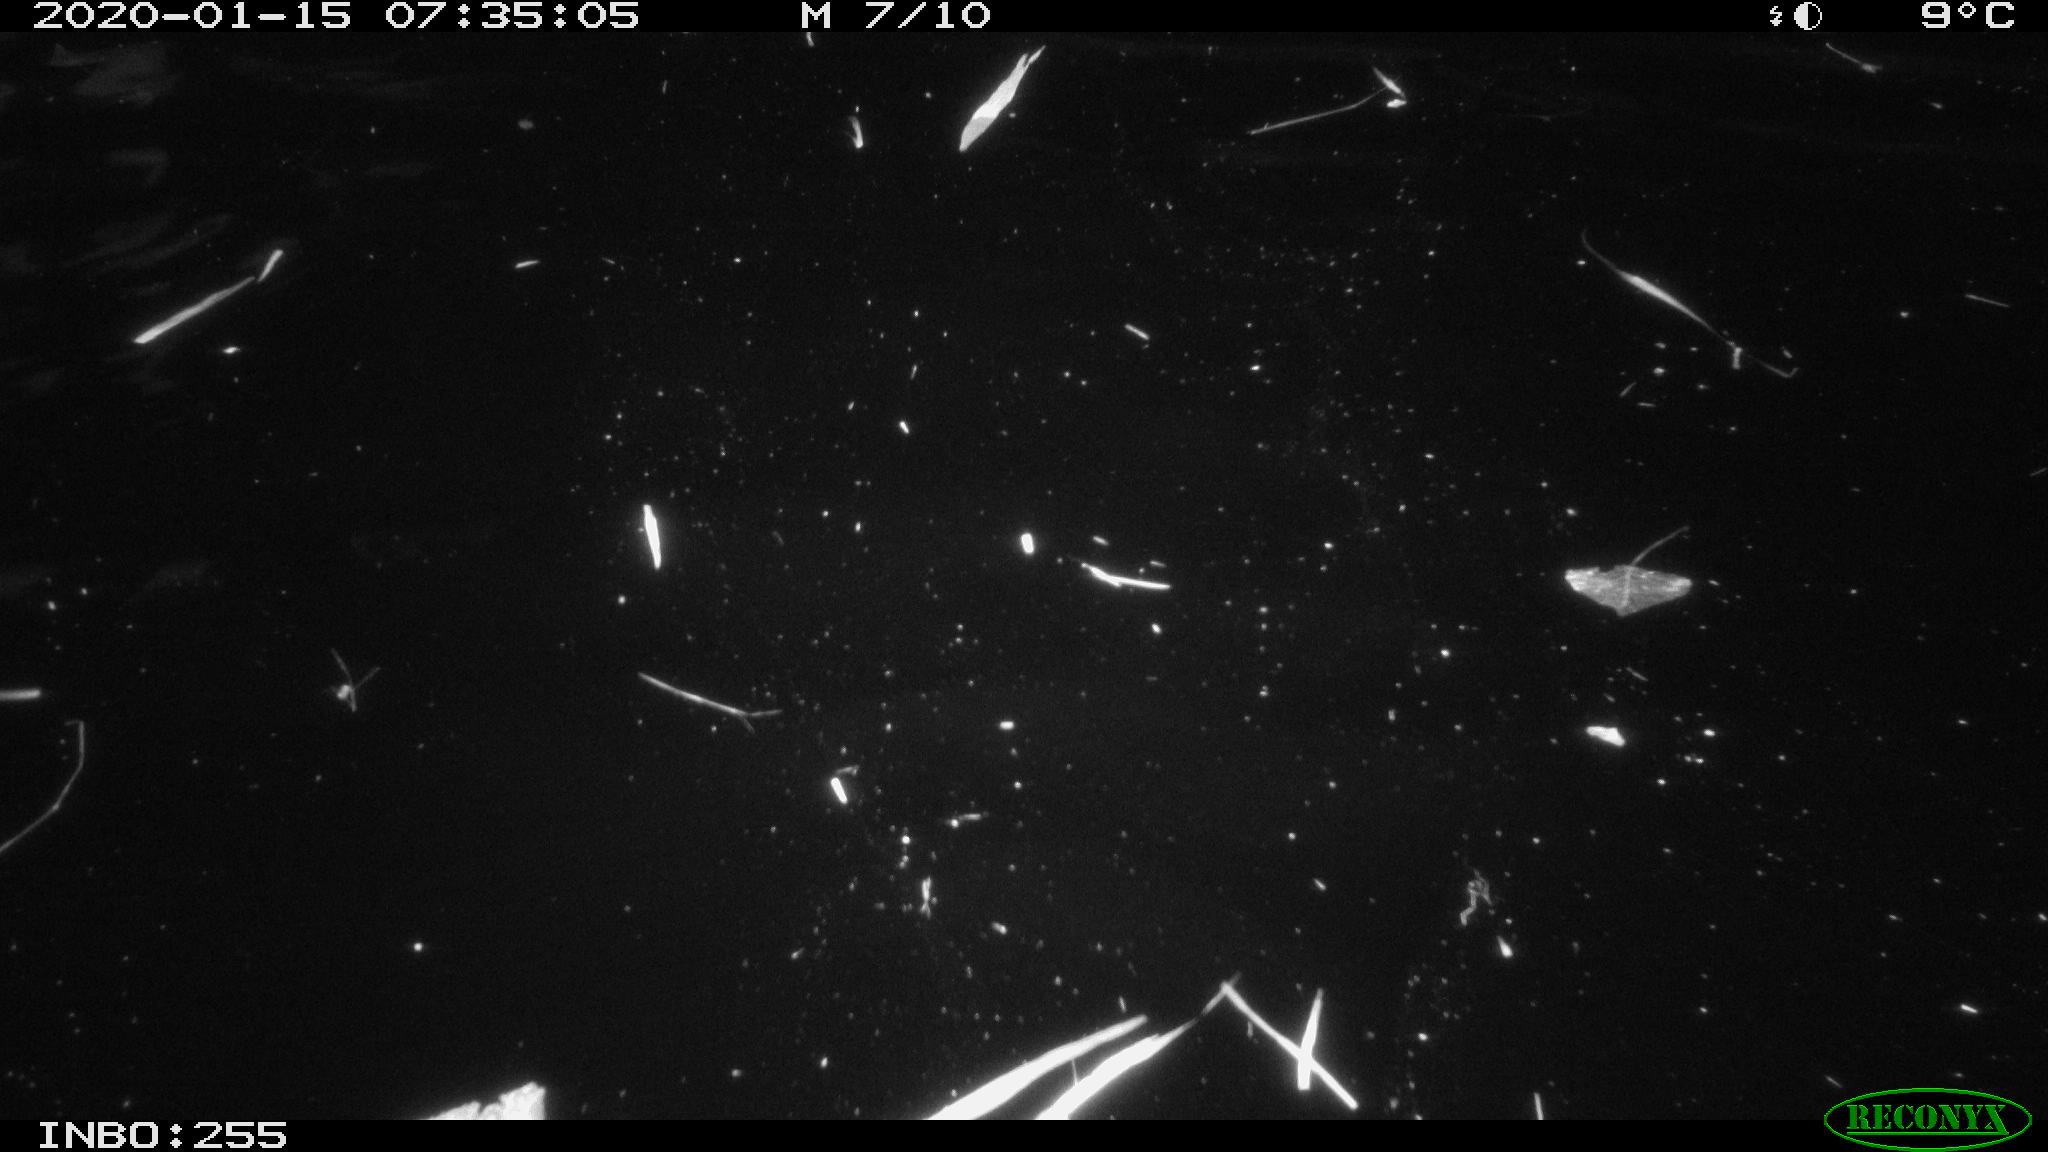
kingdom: Animalia
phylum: Chordata
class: Aves
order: Anseriformes
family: Anatidae
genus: Anas
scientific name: Anas platyrhynchos
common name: Mallard
